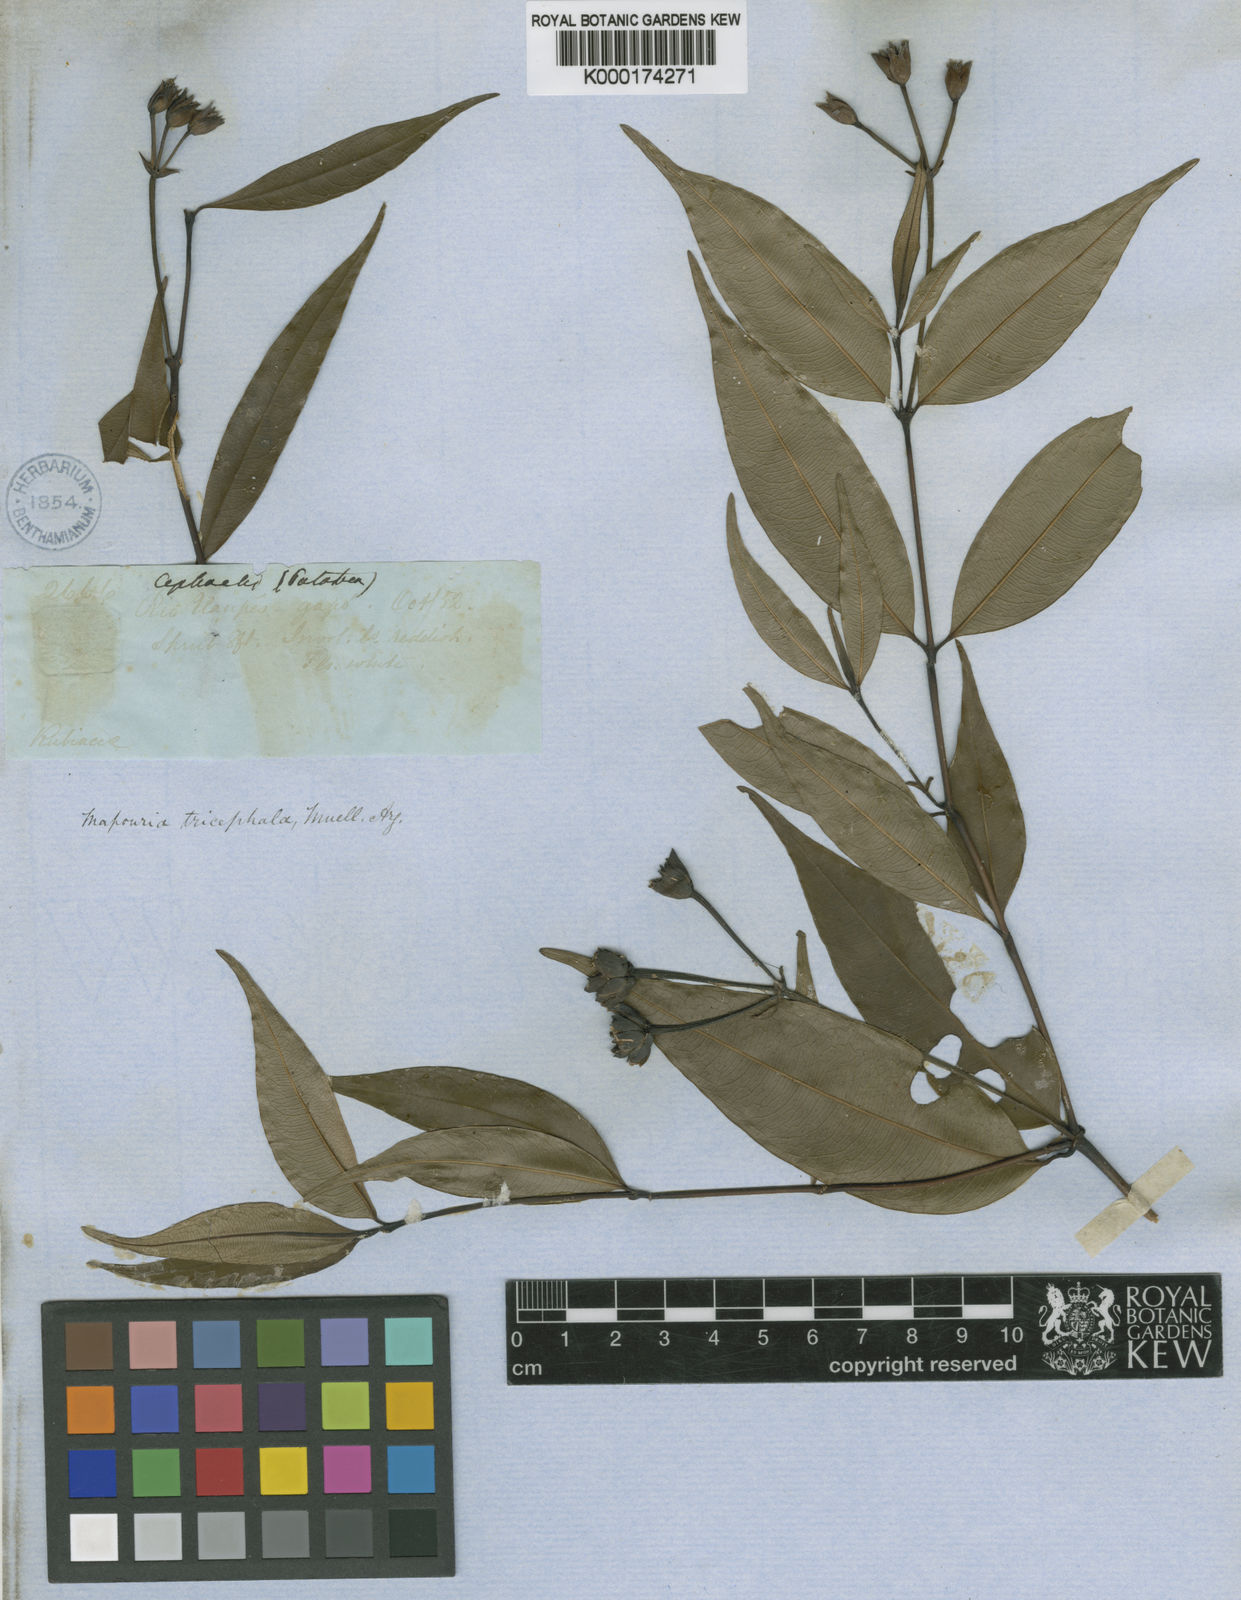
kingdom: Plantae
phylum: Tracheophyta
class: Magnoliopsida
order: Gentianales
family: Rubiaceae
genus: Psychotria
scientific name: Psychotria
